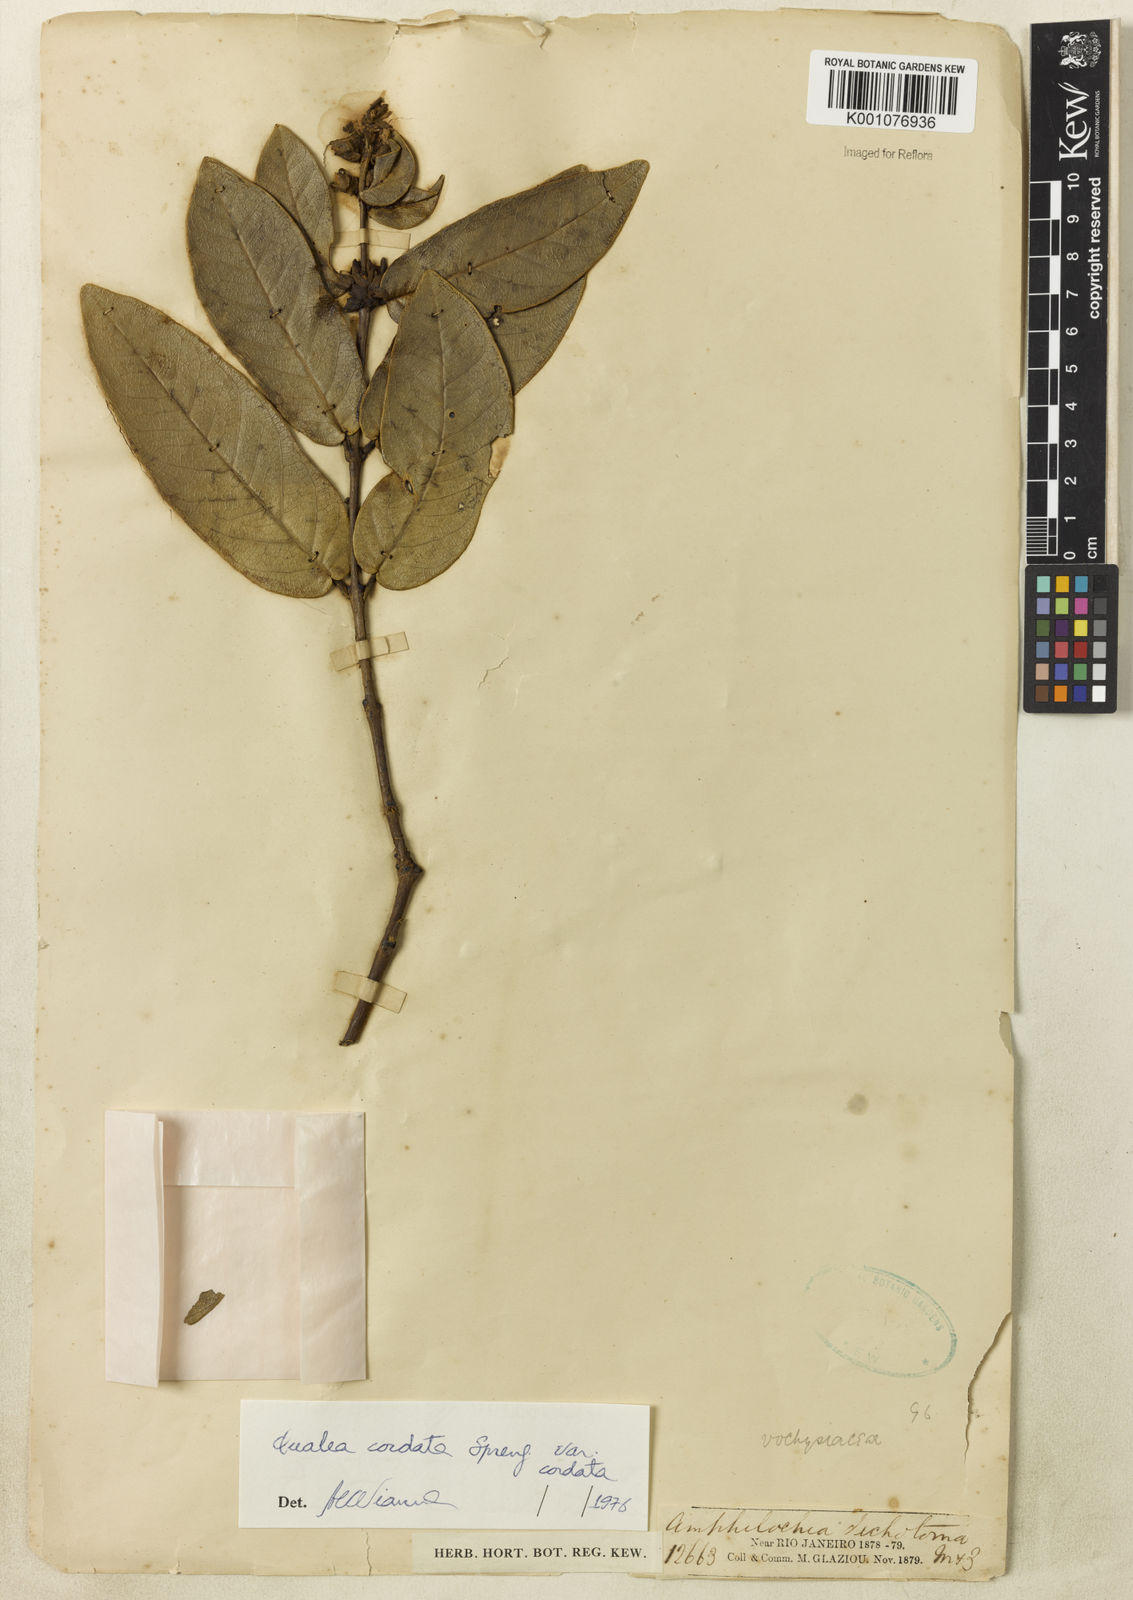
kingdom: Plantae
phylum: Tracheophyta
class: Magnoliopsida
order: Myrtales
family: Vochysiaceae
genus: Qualea
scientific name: Qualea cordata
